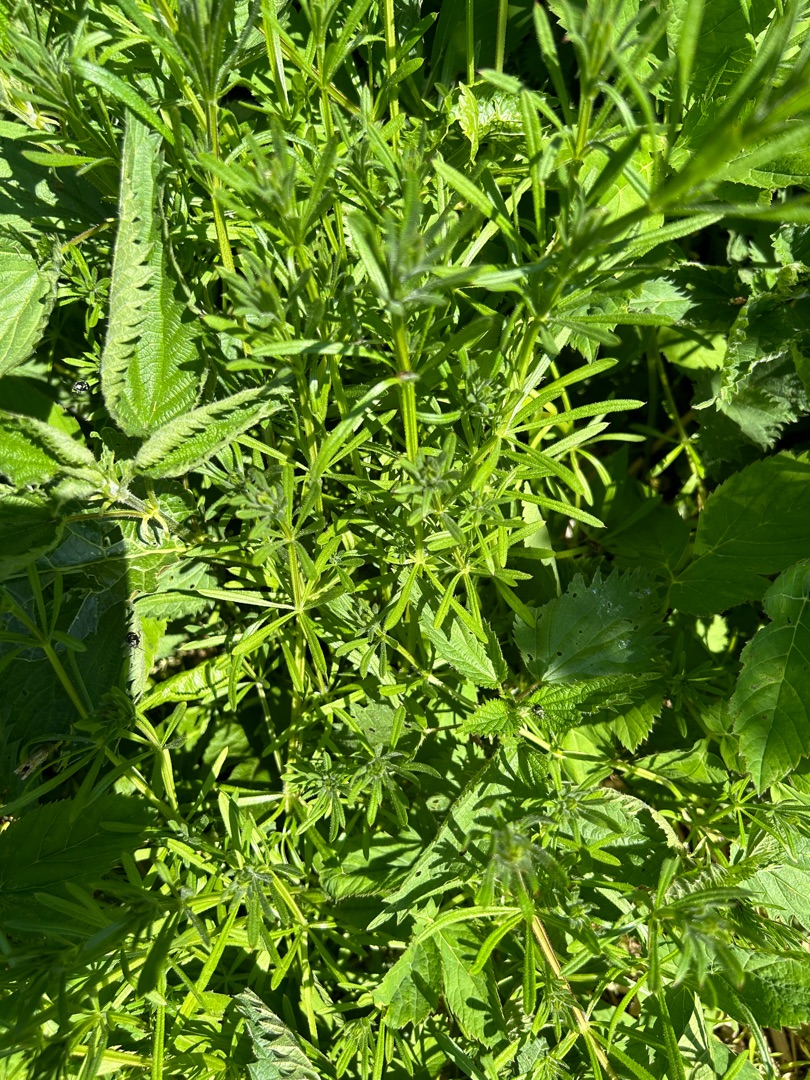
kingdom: Plantae
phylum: Tracheophyta
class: Magnoliopsida
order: Gentianales
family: Rubiaceae
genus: Galium
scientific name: Galium aparine
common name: Burre-snerre
